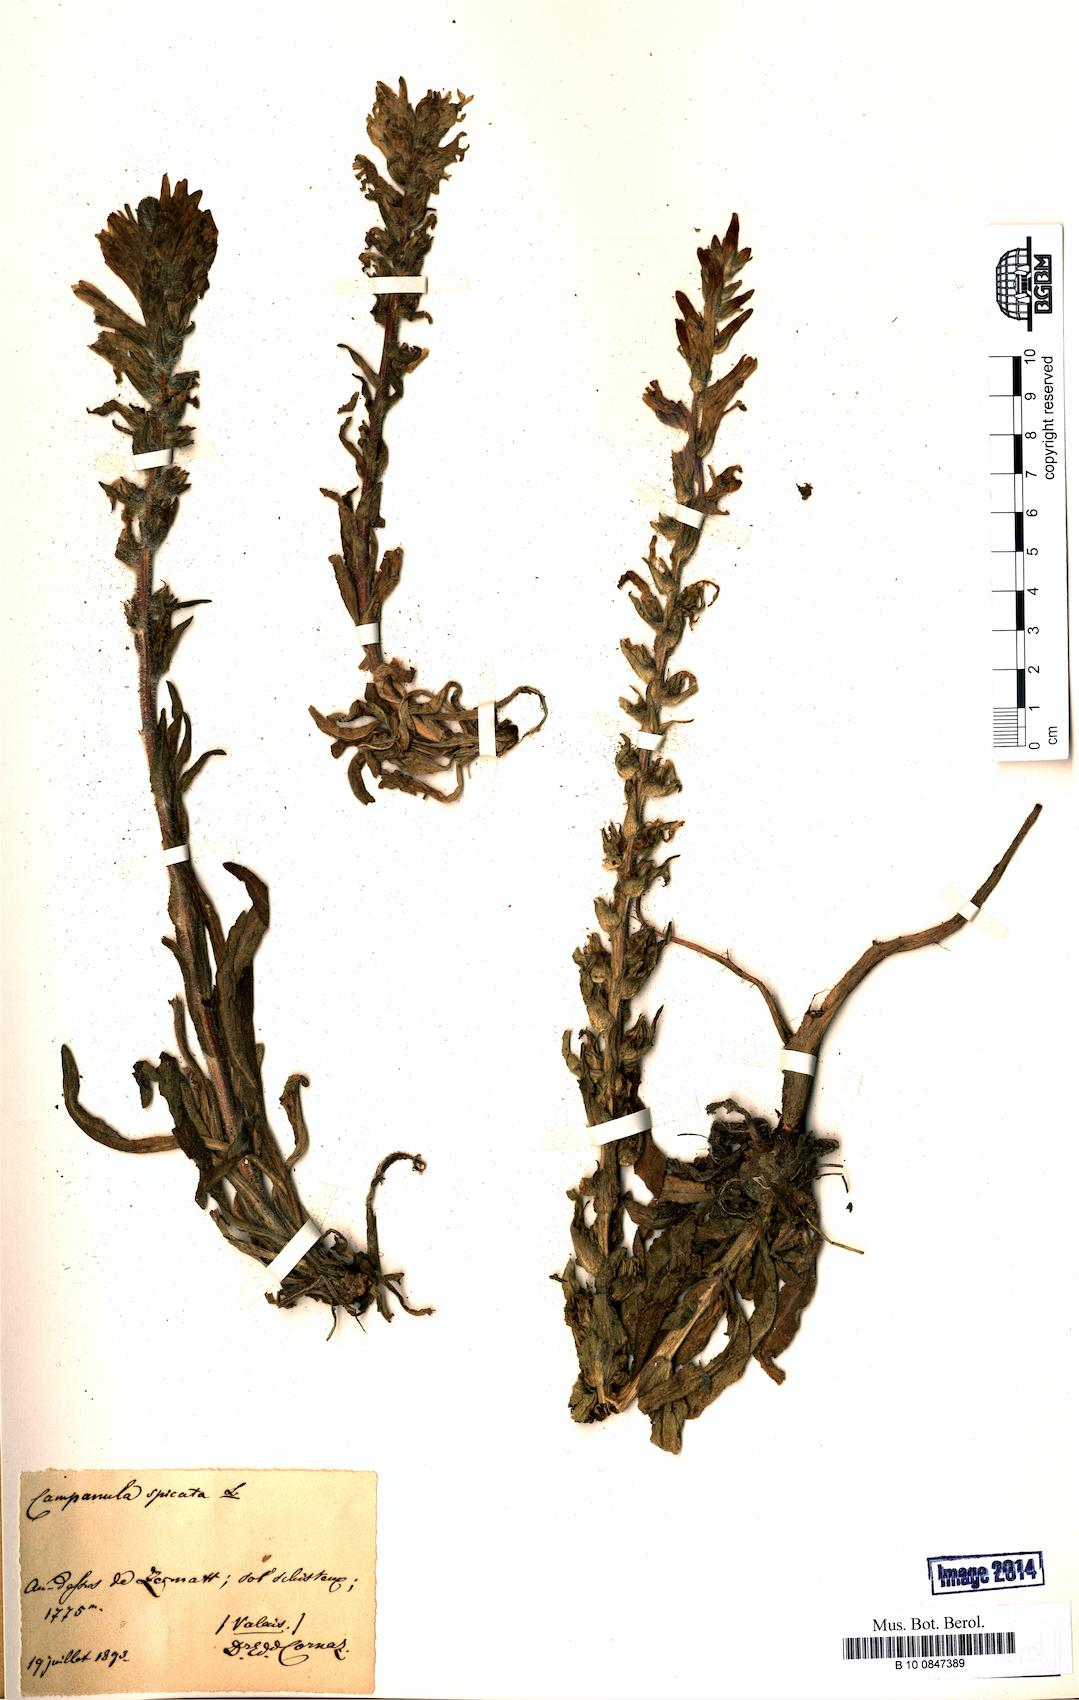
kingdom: Plantae
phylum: Tracheophyta
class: Magnoliopsida
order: Asterales
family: Campanulaceae
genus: Campanula
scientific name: Campanula spicata
